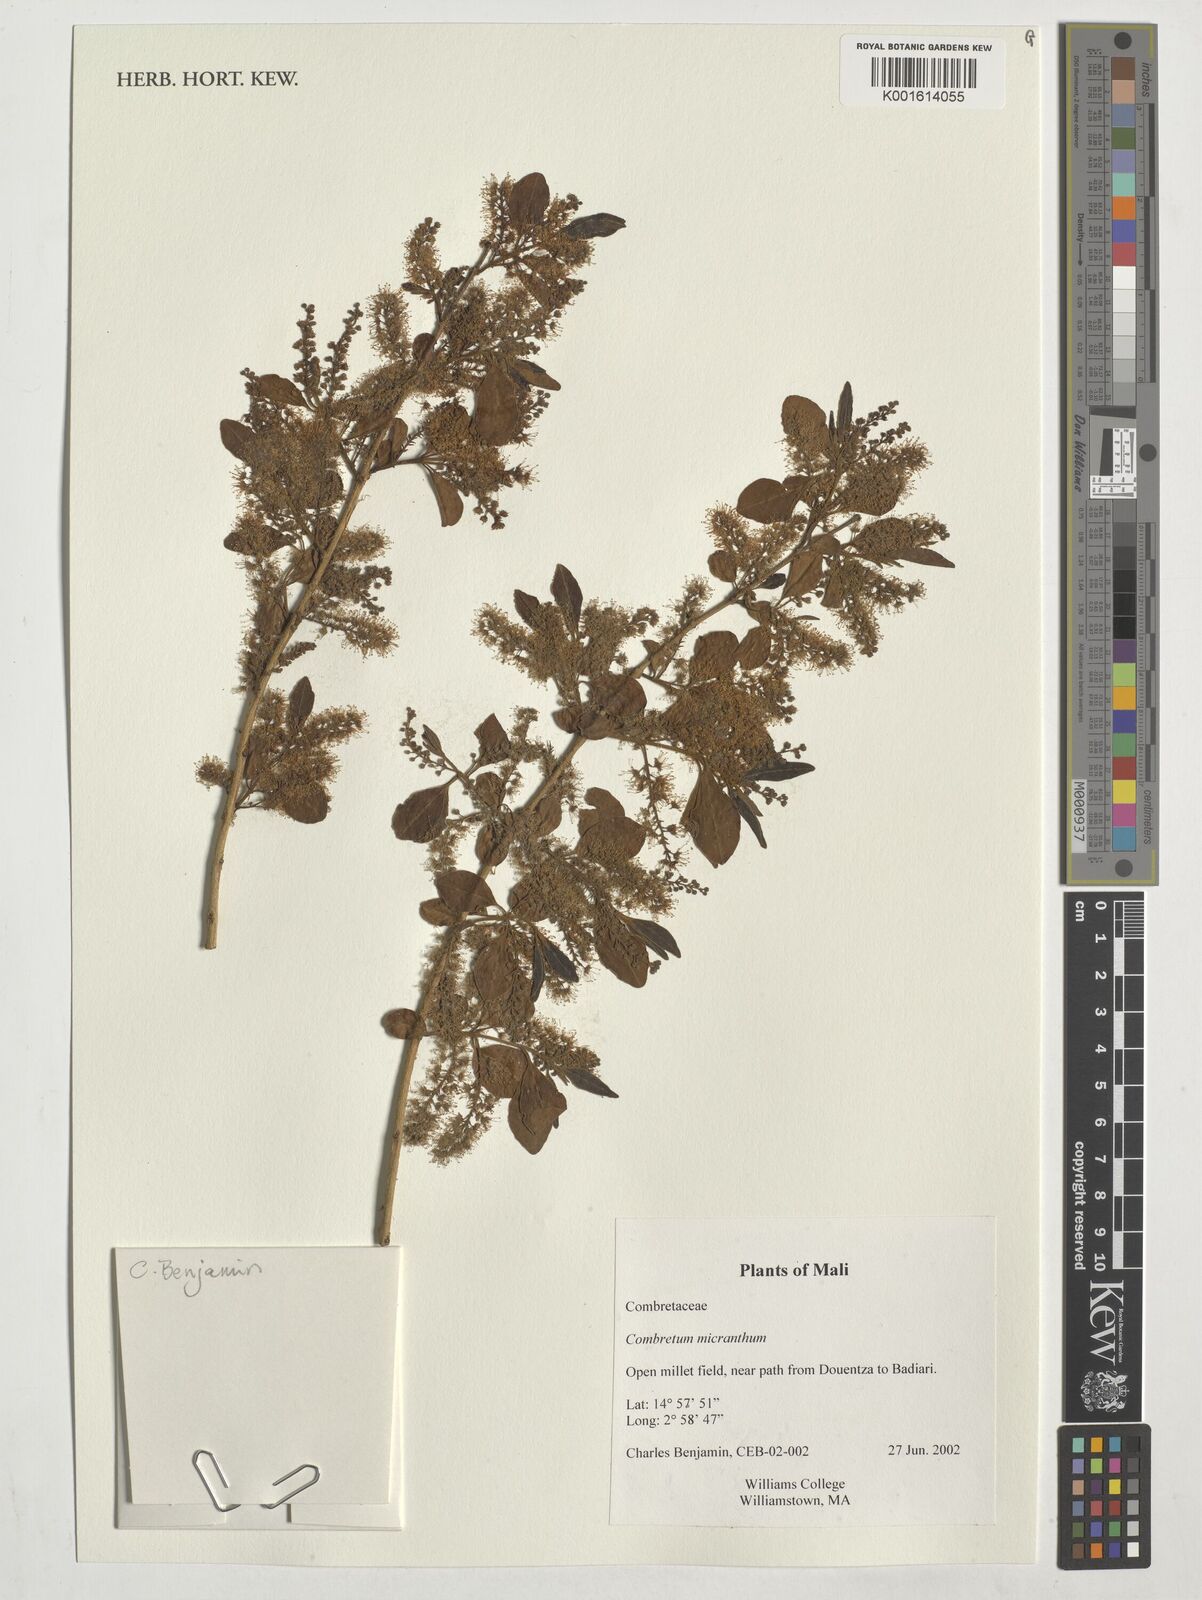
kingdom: Plantae
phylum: Tracheophyta
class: Magnoliopsida
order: Myrtales
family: Combretaceae
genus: Combretum
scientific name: Combretum micranthum
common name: Opium-antidote
